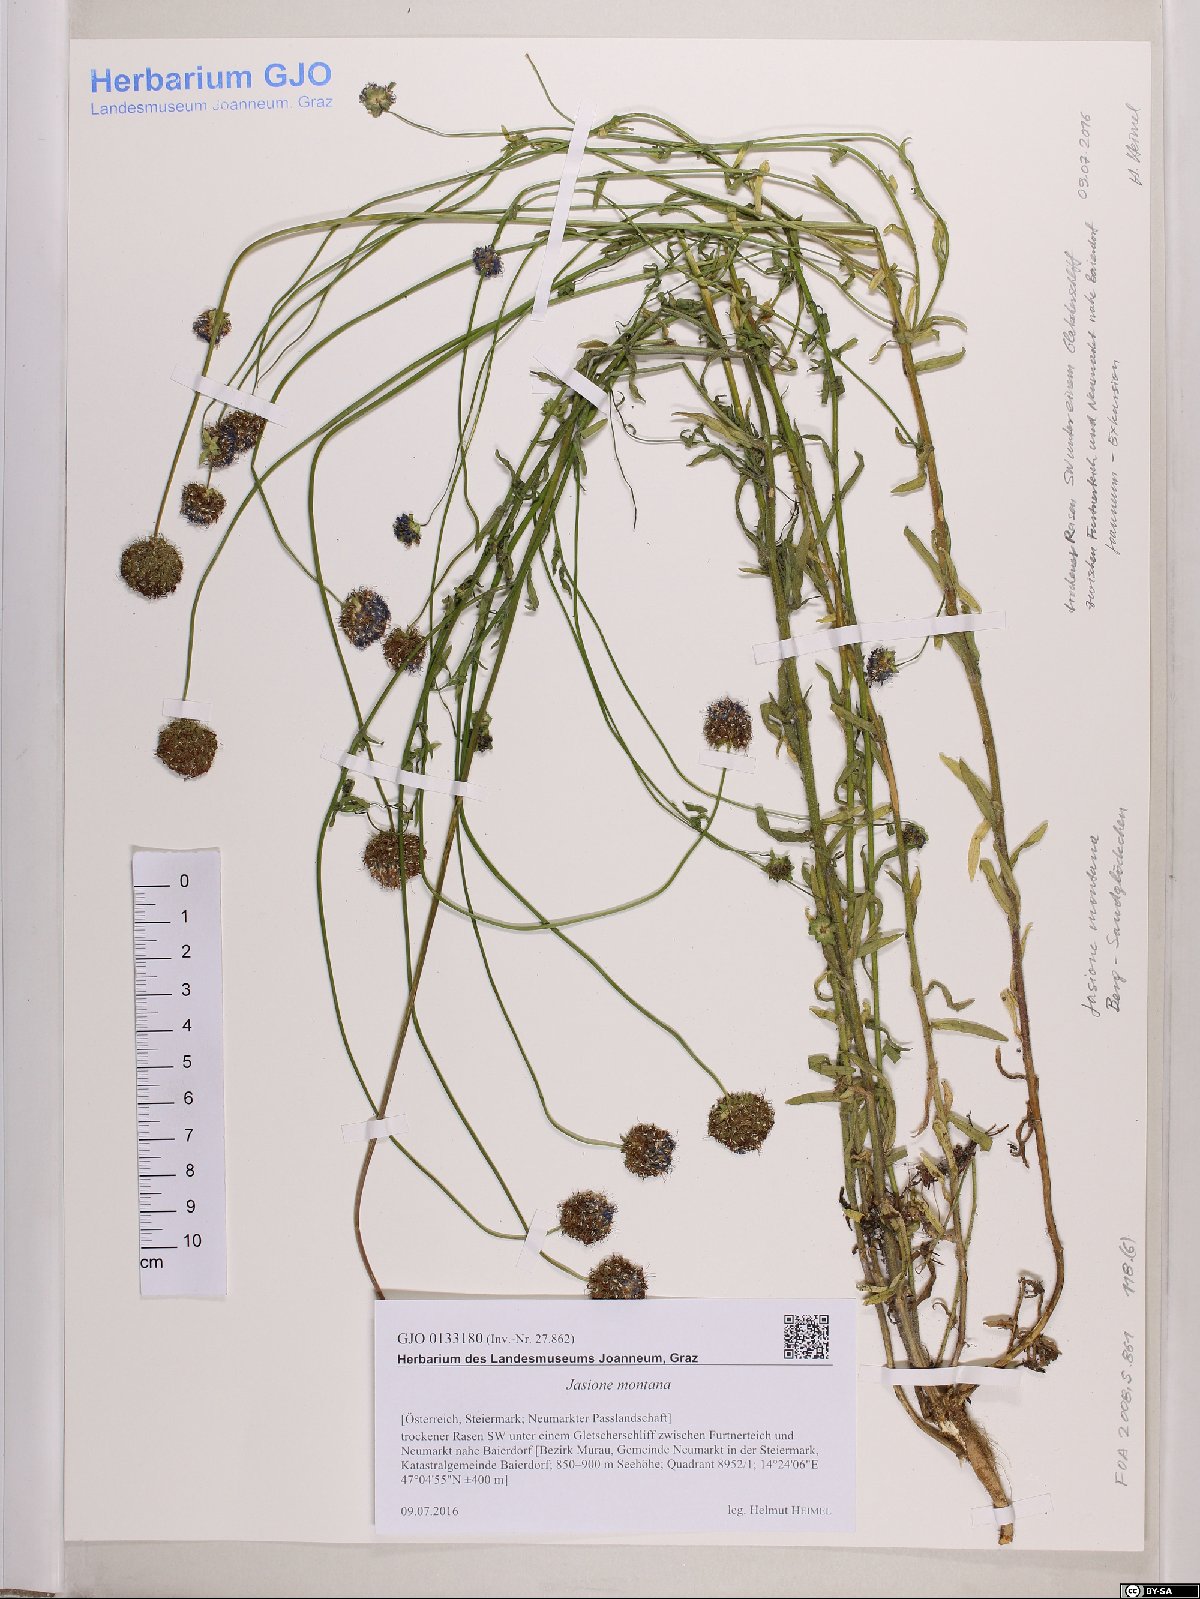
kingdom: Plantae
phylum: Tracheophyta
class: Magnoliopsida
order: Asterales
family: Campanulaceae
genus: Jasione
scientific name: Jasione montana
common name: Sheep's-bit
